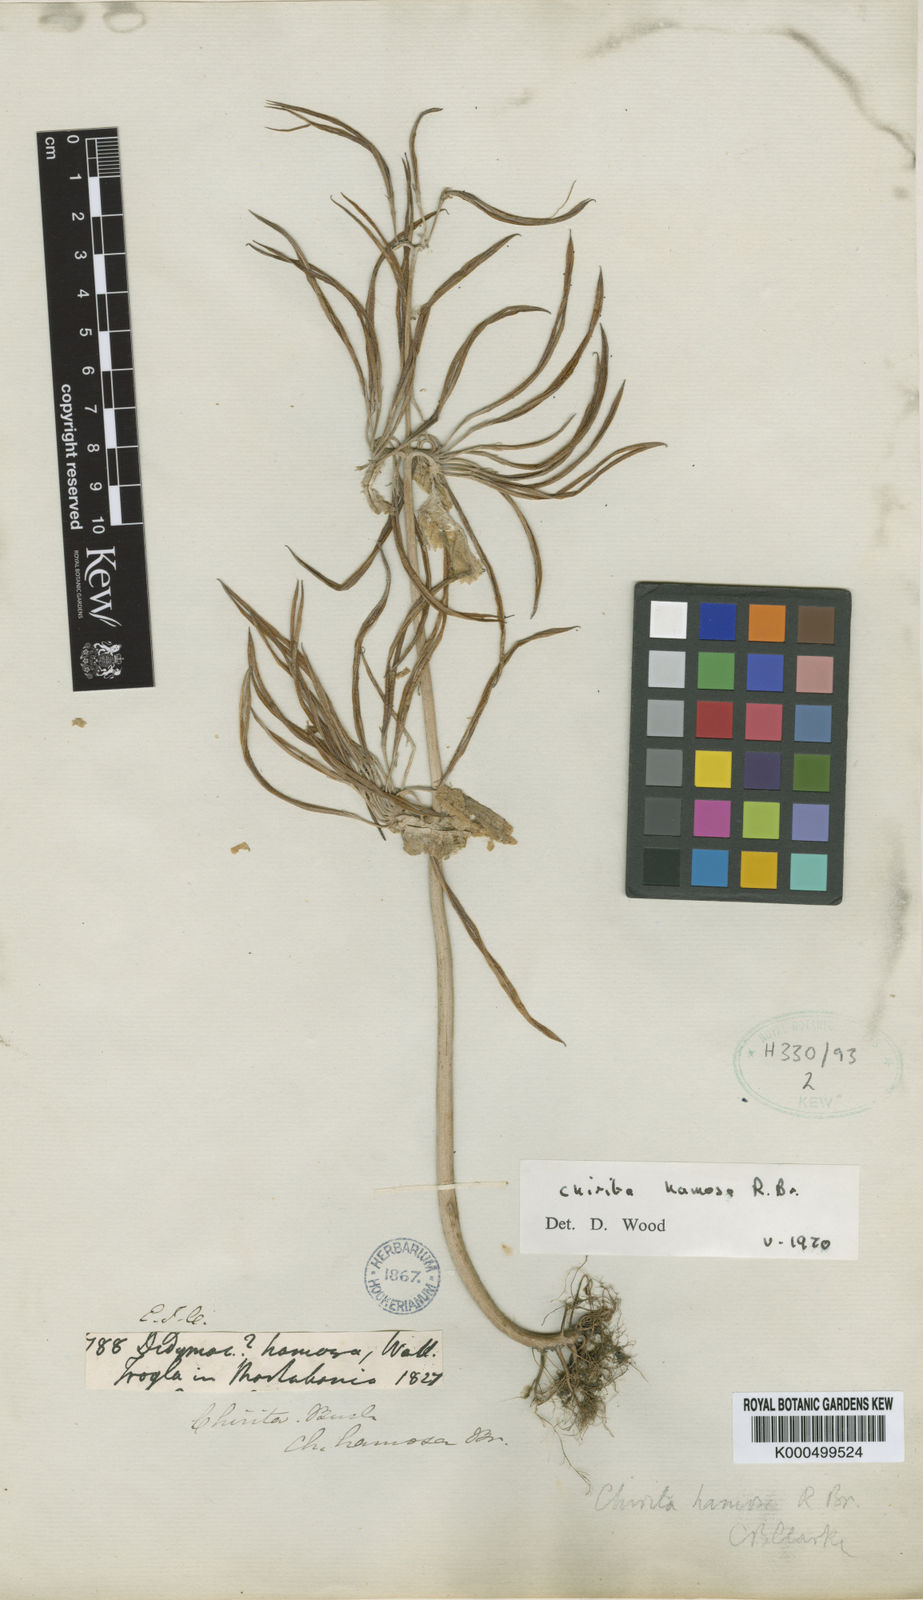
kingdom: Plantae
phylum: Tracheophyta
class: Magnoliopsida
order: Lamiales
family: Gesneriaceae
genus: Microchirita
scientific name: Microchirita albiflora
